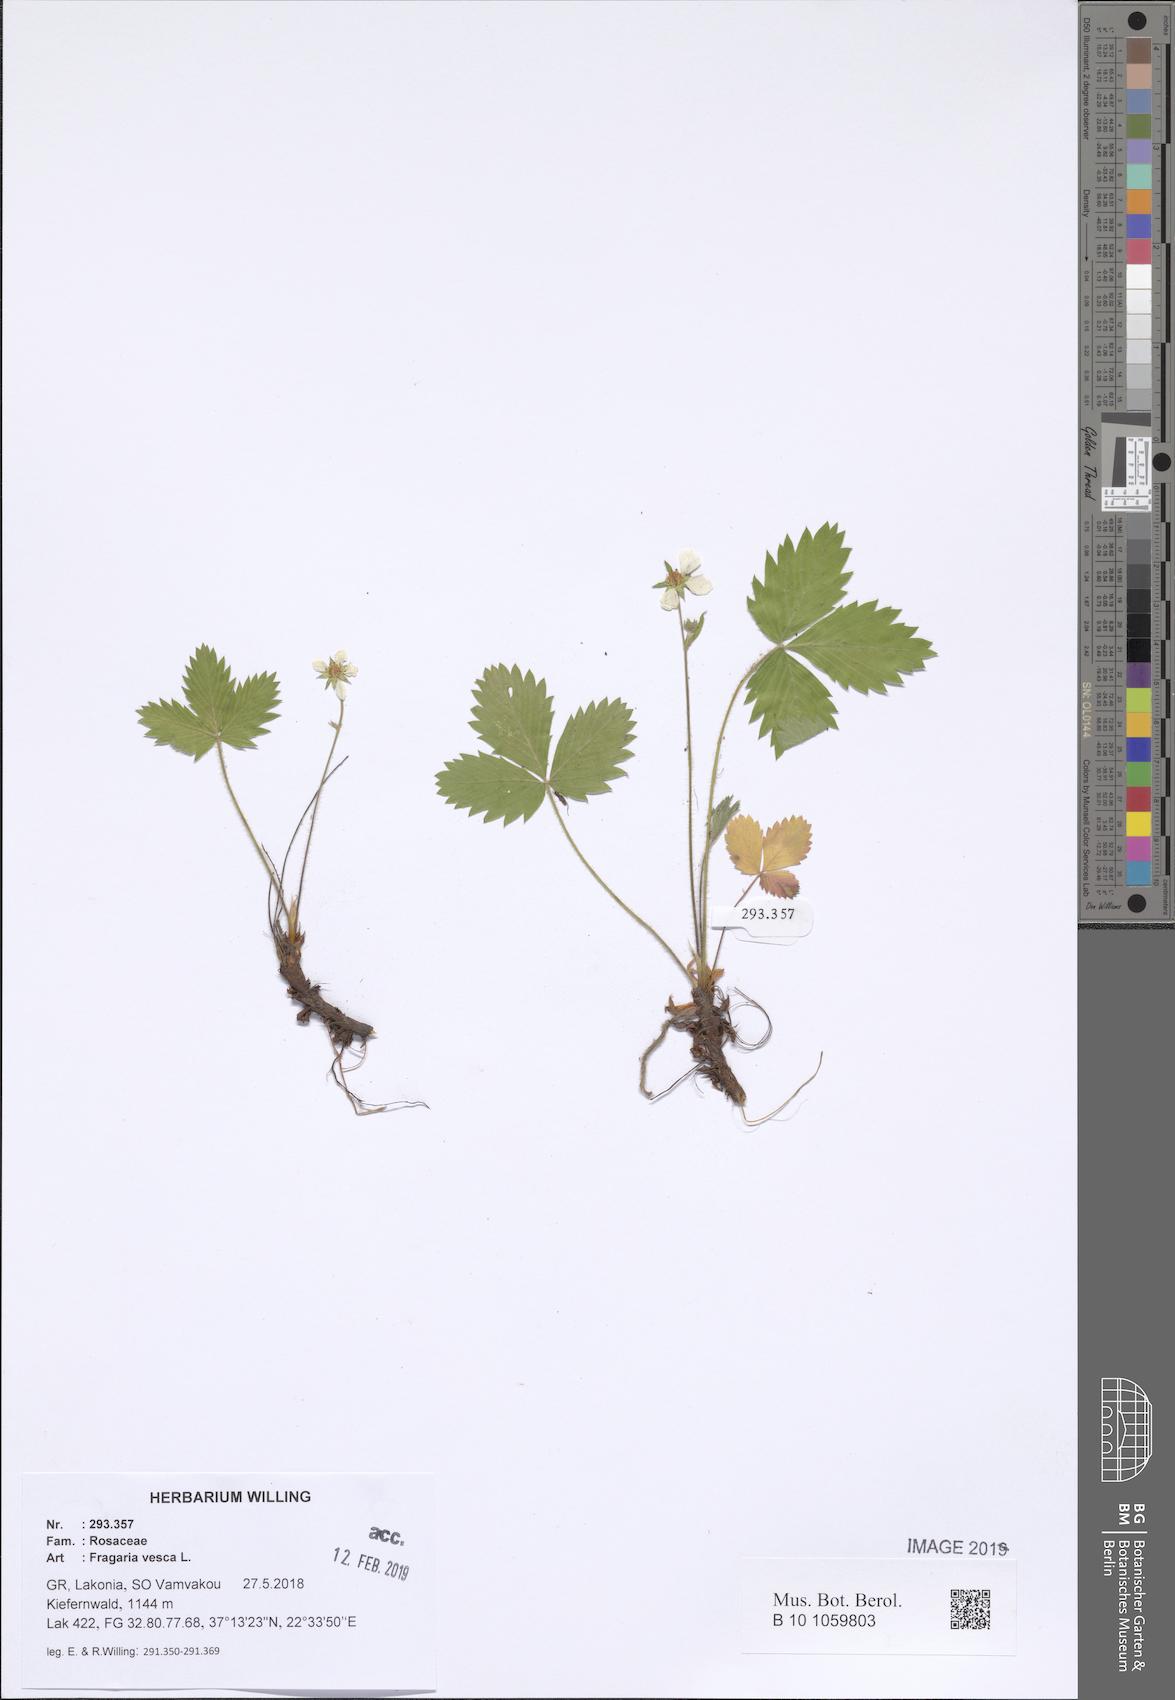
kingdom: Plantae
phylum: Tracheophyta
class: Magnoliopsida
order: Rosales
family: Rosaceae
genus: Fragaria
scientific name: Fragaria vesca
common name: Wild strawberry
